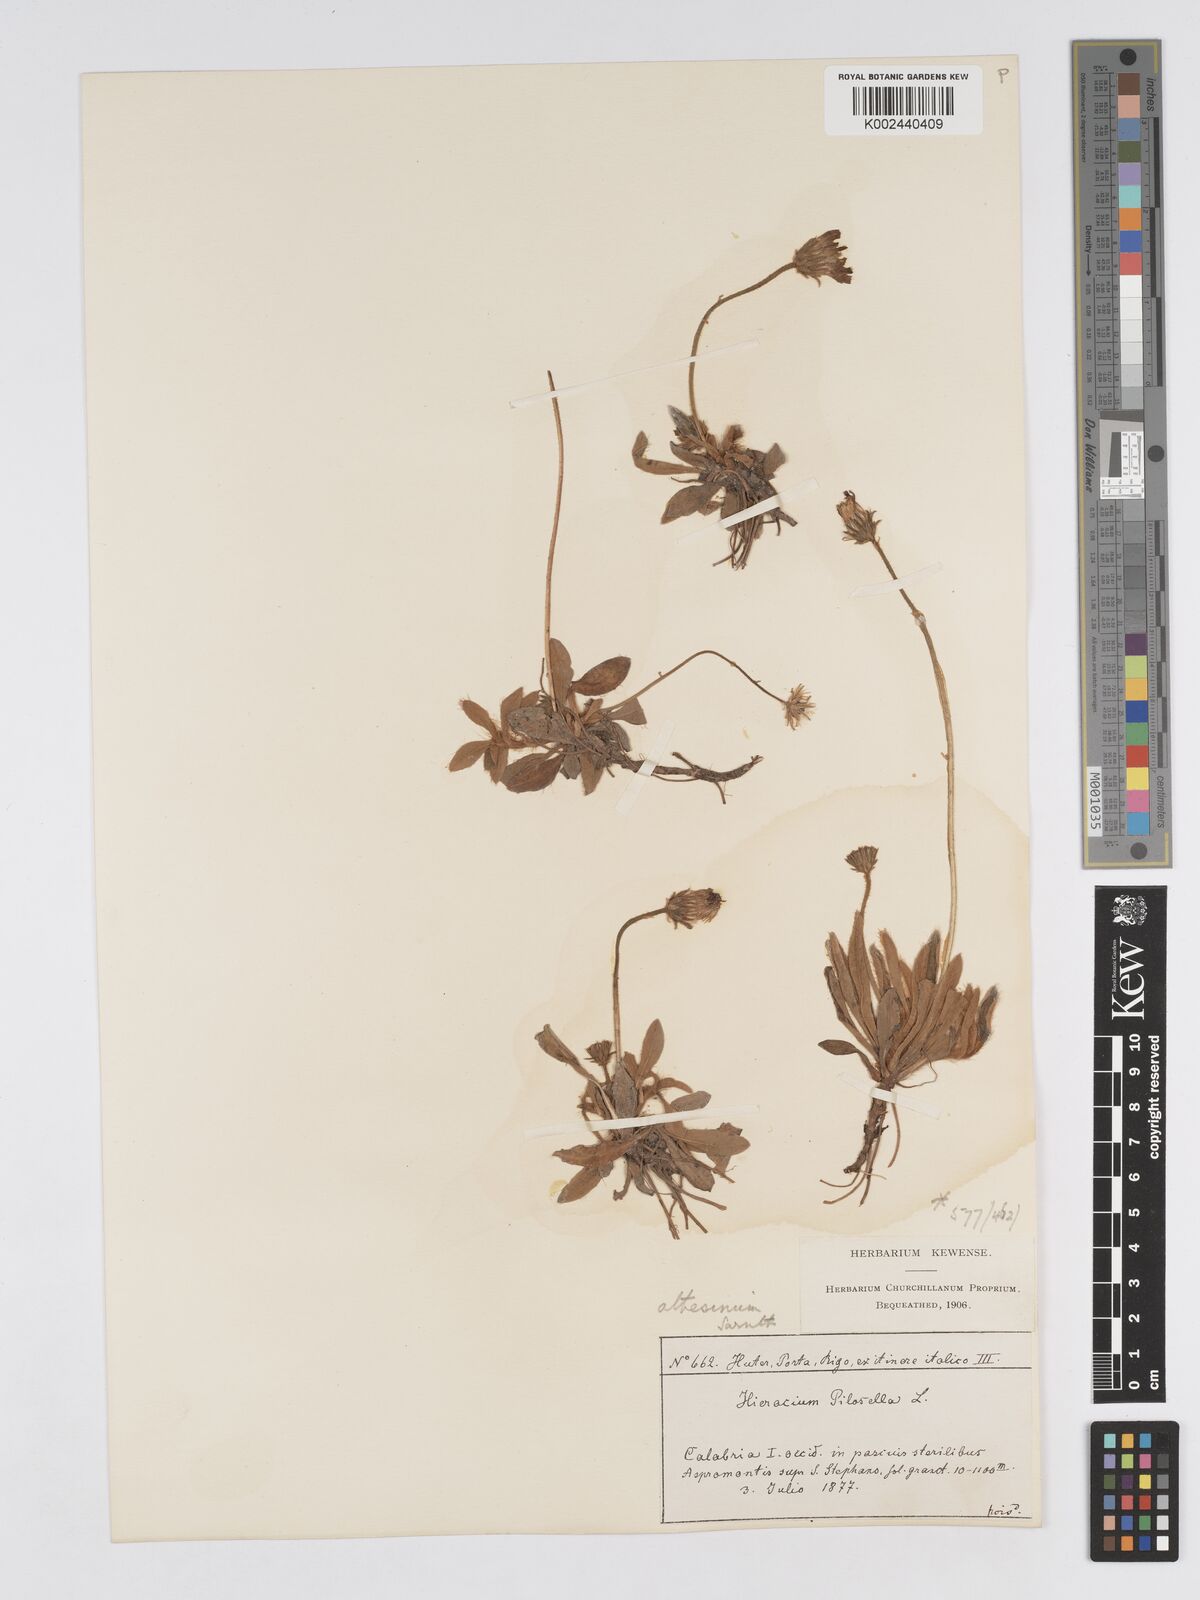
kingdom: Plantae
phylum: Tracheophyta
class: Magnoliopsida
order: Asterales
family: Asteraceae
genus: Pilosella
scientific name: Pilosella officinarum
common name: Mouse-ear hawkweed
